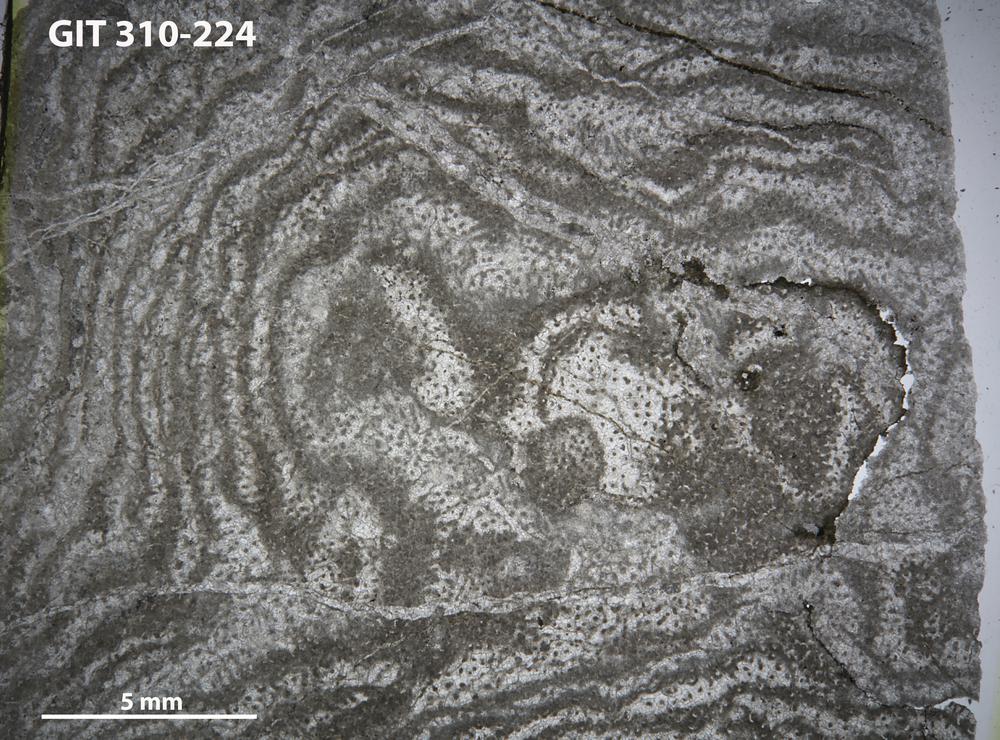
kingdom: Animalia
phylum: Porifera
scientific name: Porifera
